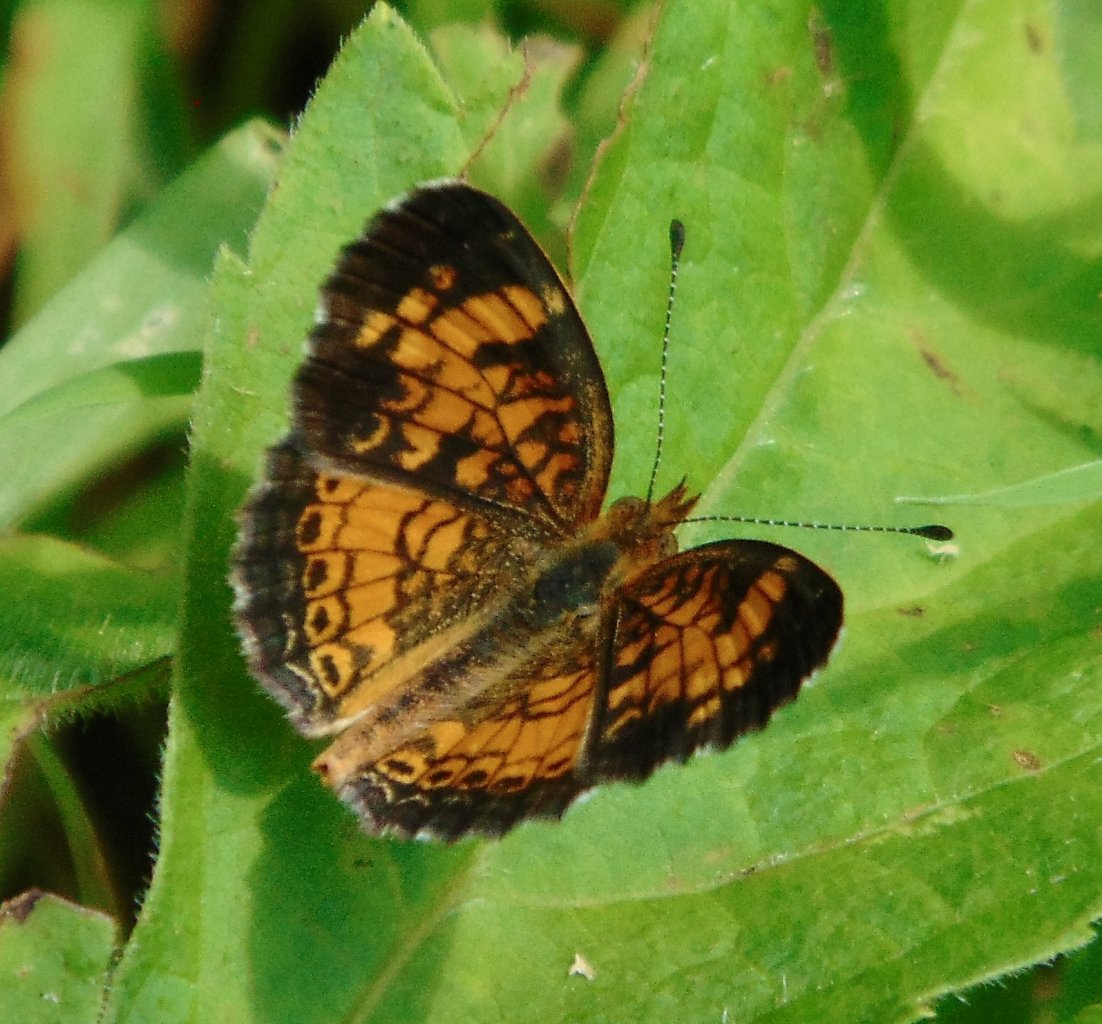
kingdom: Animalia
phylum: Arthropoda
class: Insecta
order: Lepidoptera
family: Nymphalidae
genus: Phyciodes
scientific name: Phyciodes tharos
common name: Pearl Crescent
